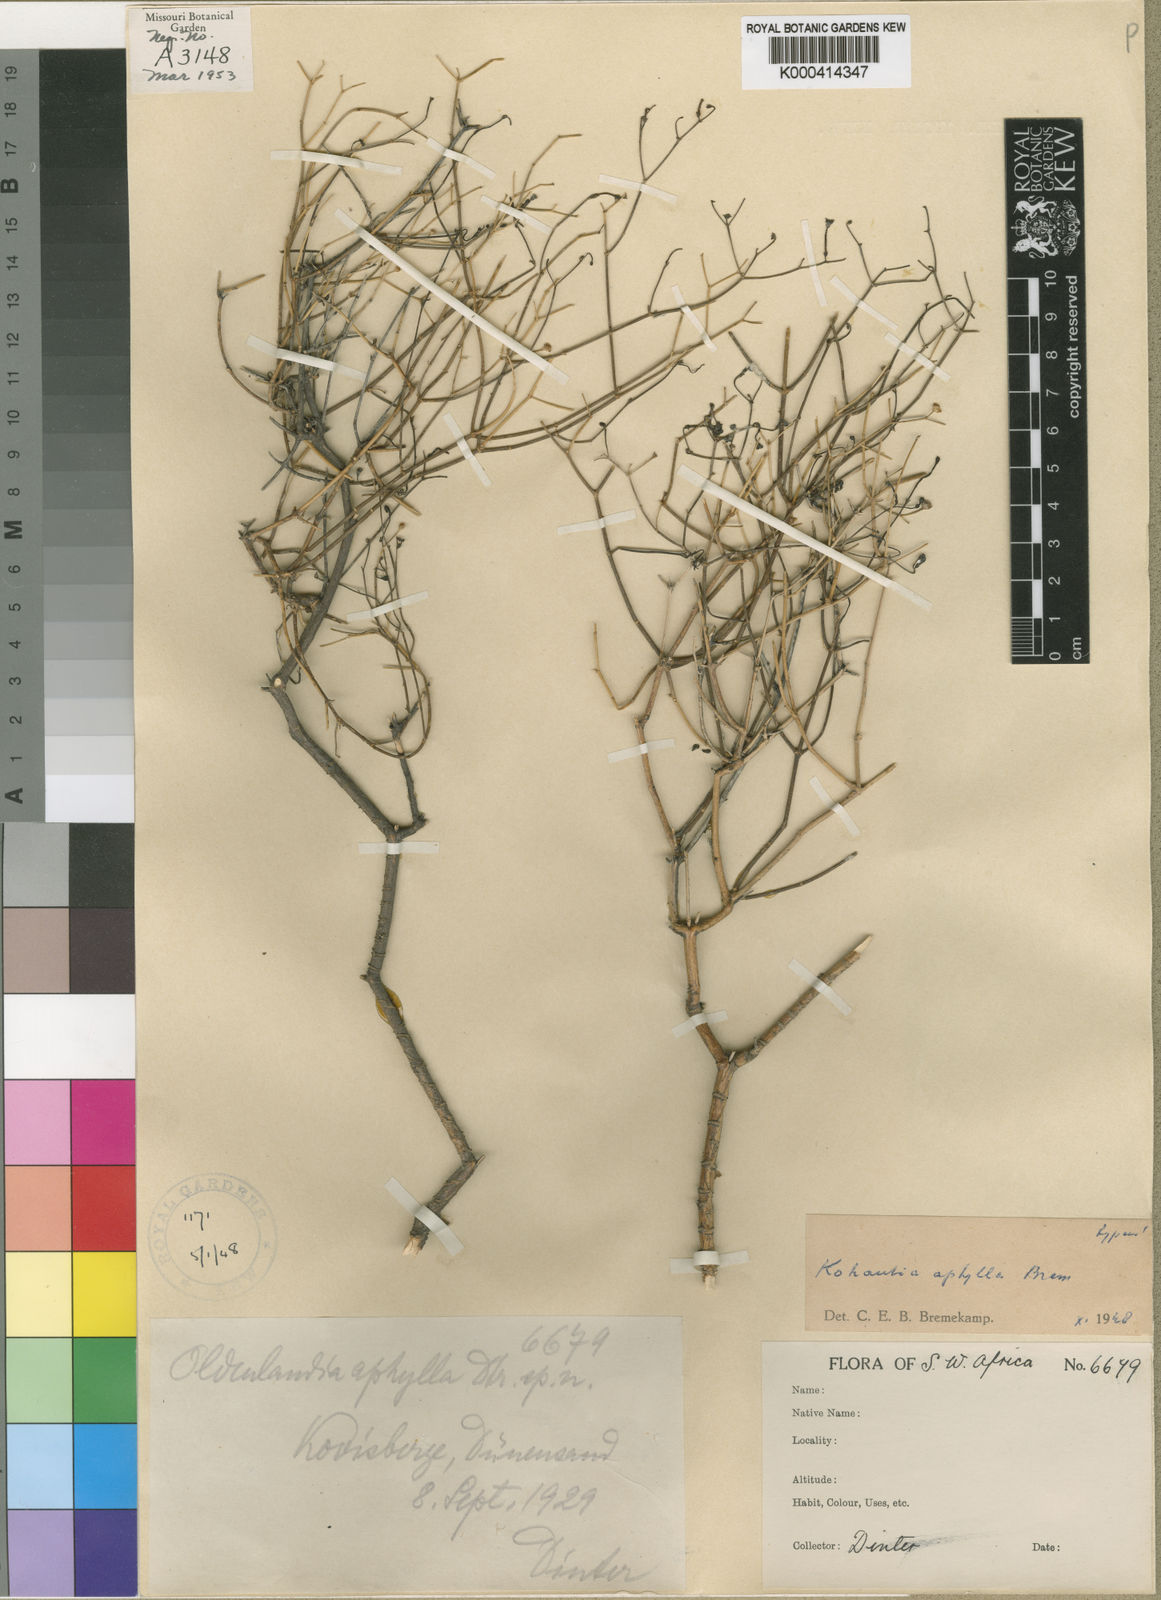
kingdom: Plantae
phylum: Tracheophyta
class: Magnoliopsida
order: Gentianales
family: Rubiaceae
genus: Kohautia
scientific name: Kohautia cynanchica
